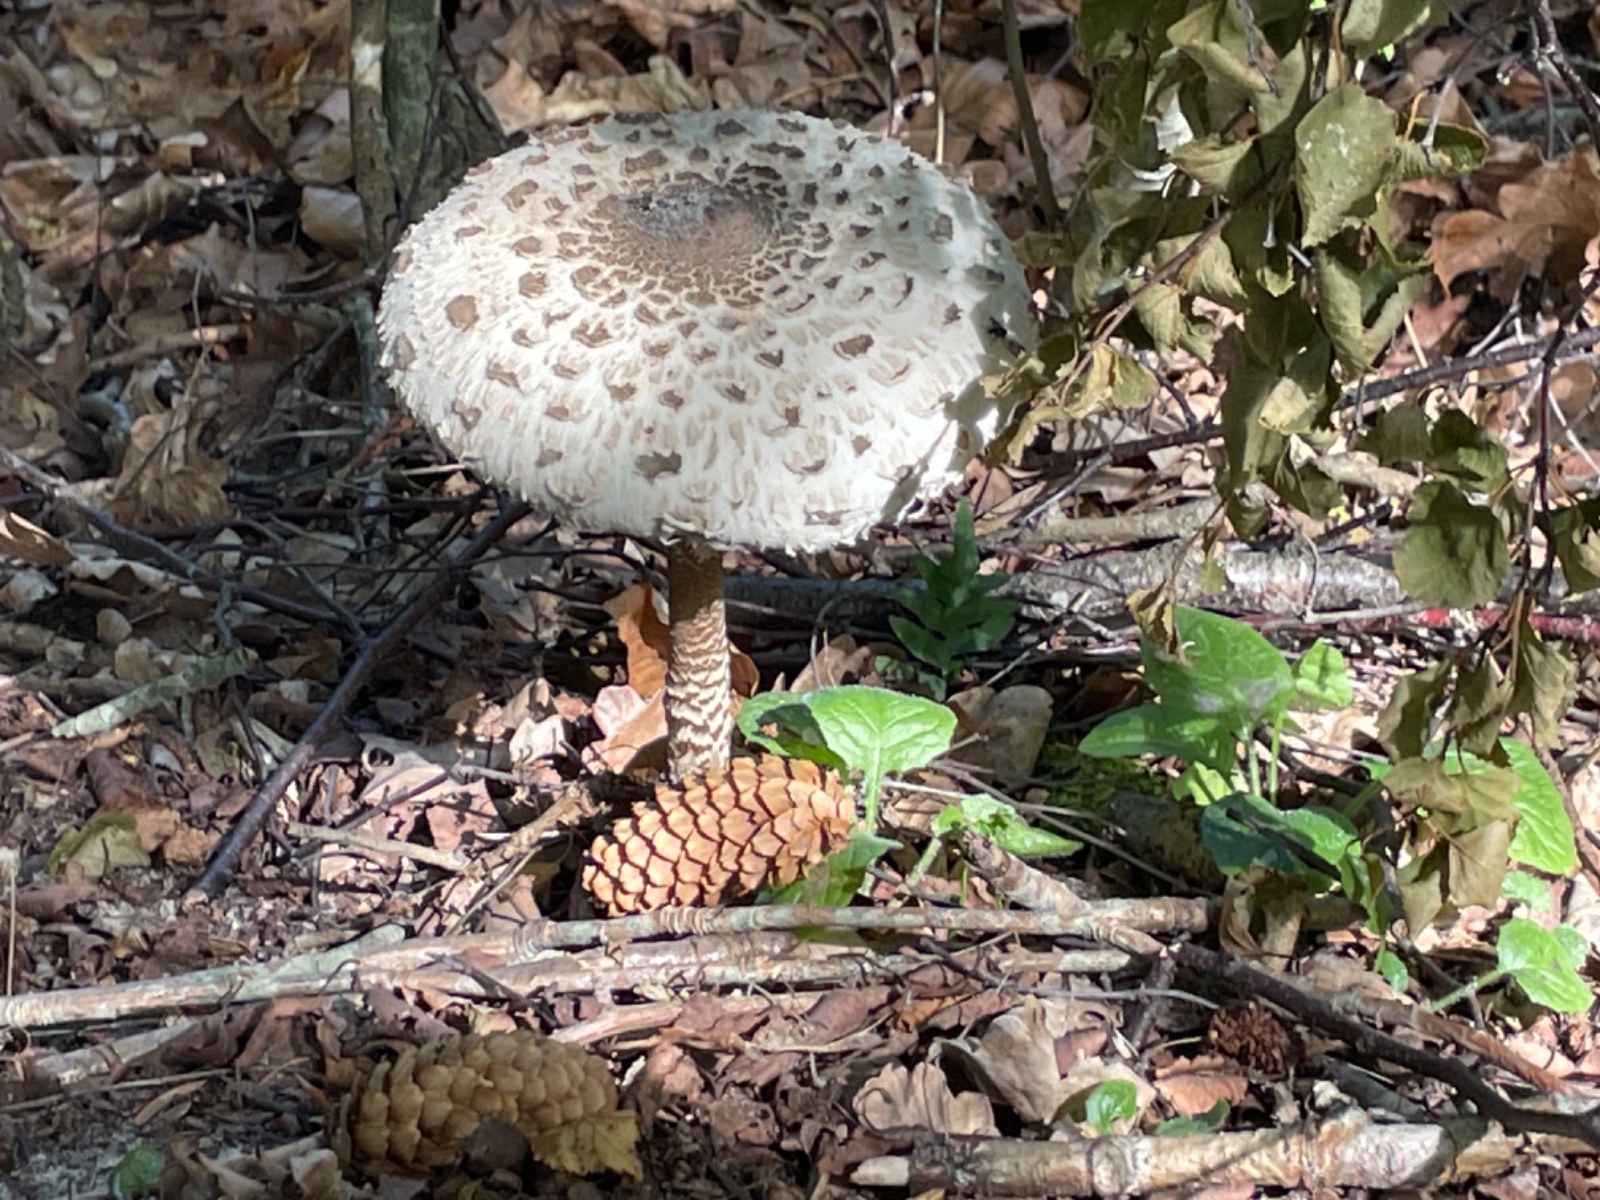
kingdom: Fungi
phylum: Basidiomycota
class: Agaricomycetes
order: Agaricales
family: Agaricaceae
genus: Macrolepiota
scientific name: Macrolepiota
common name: kæmpeparasolhat
